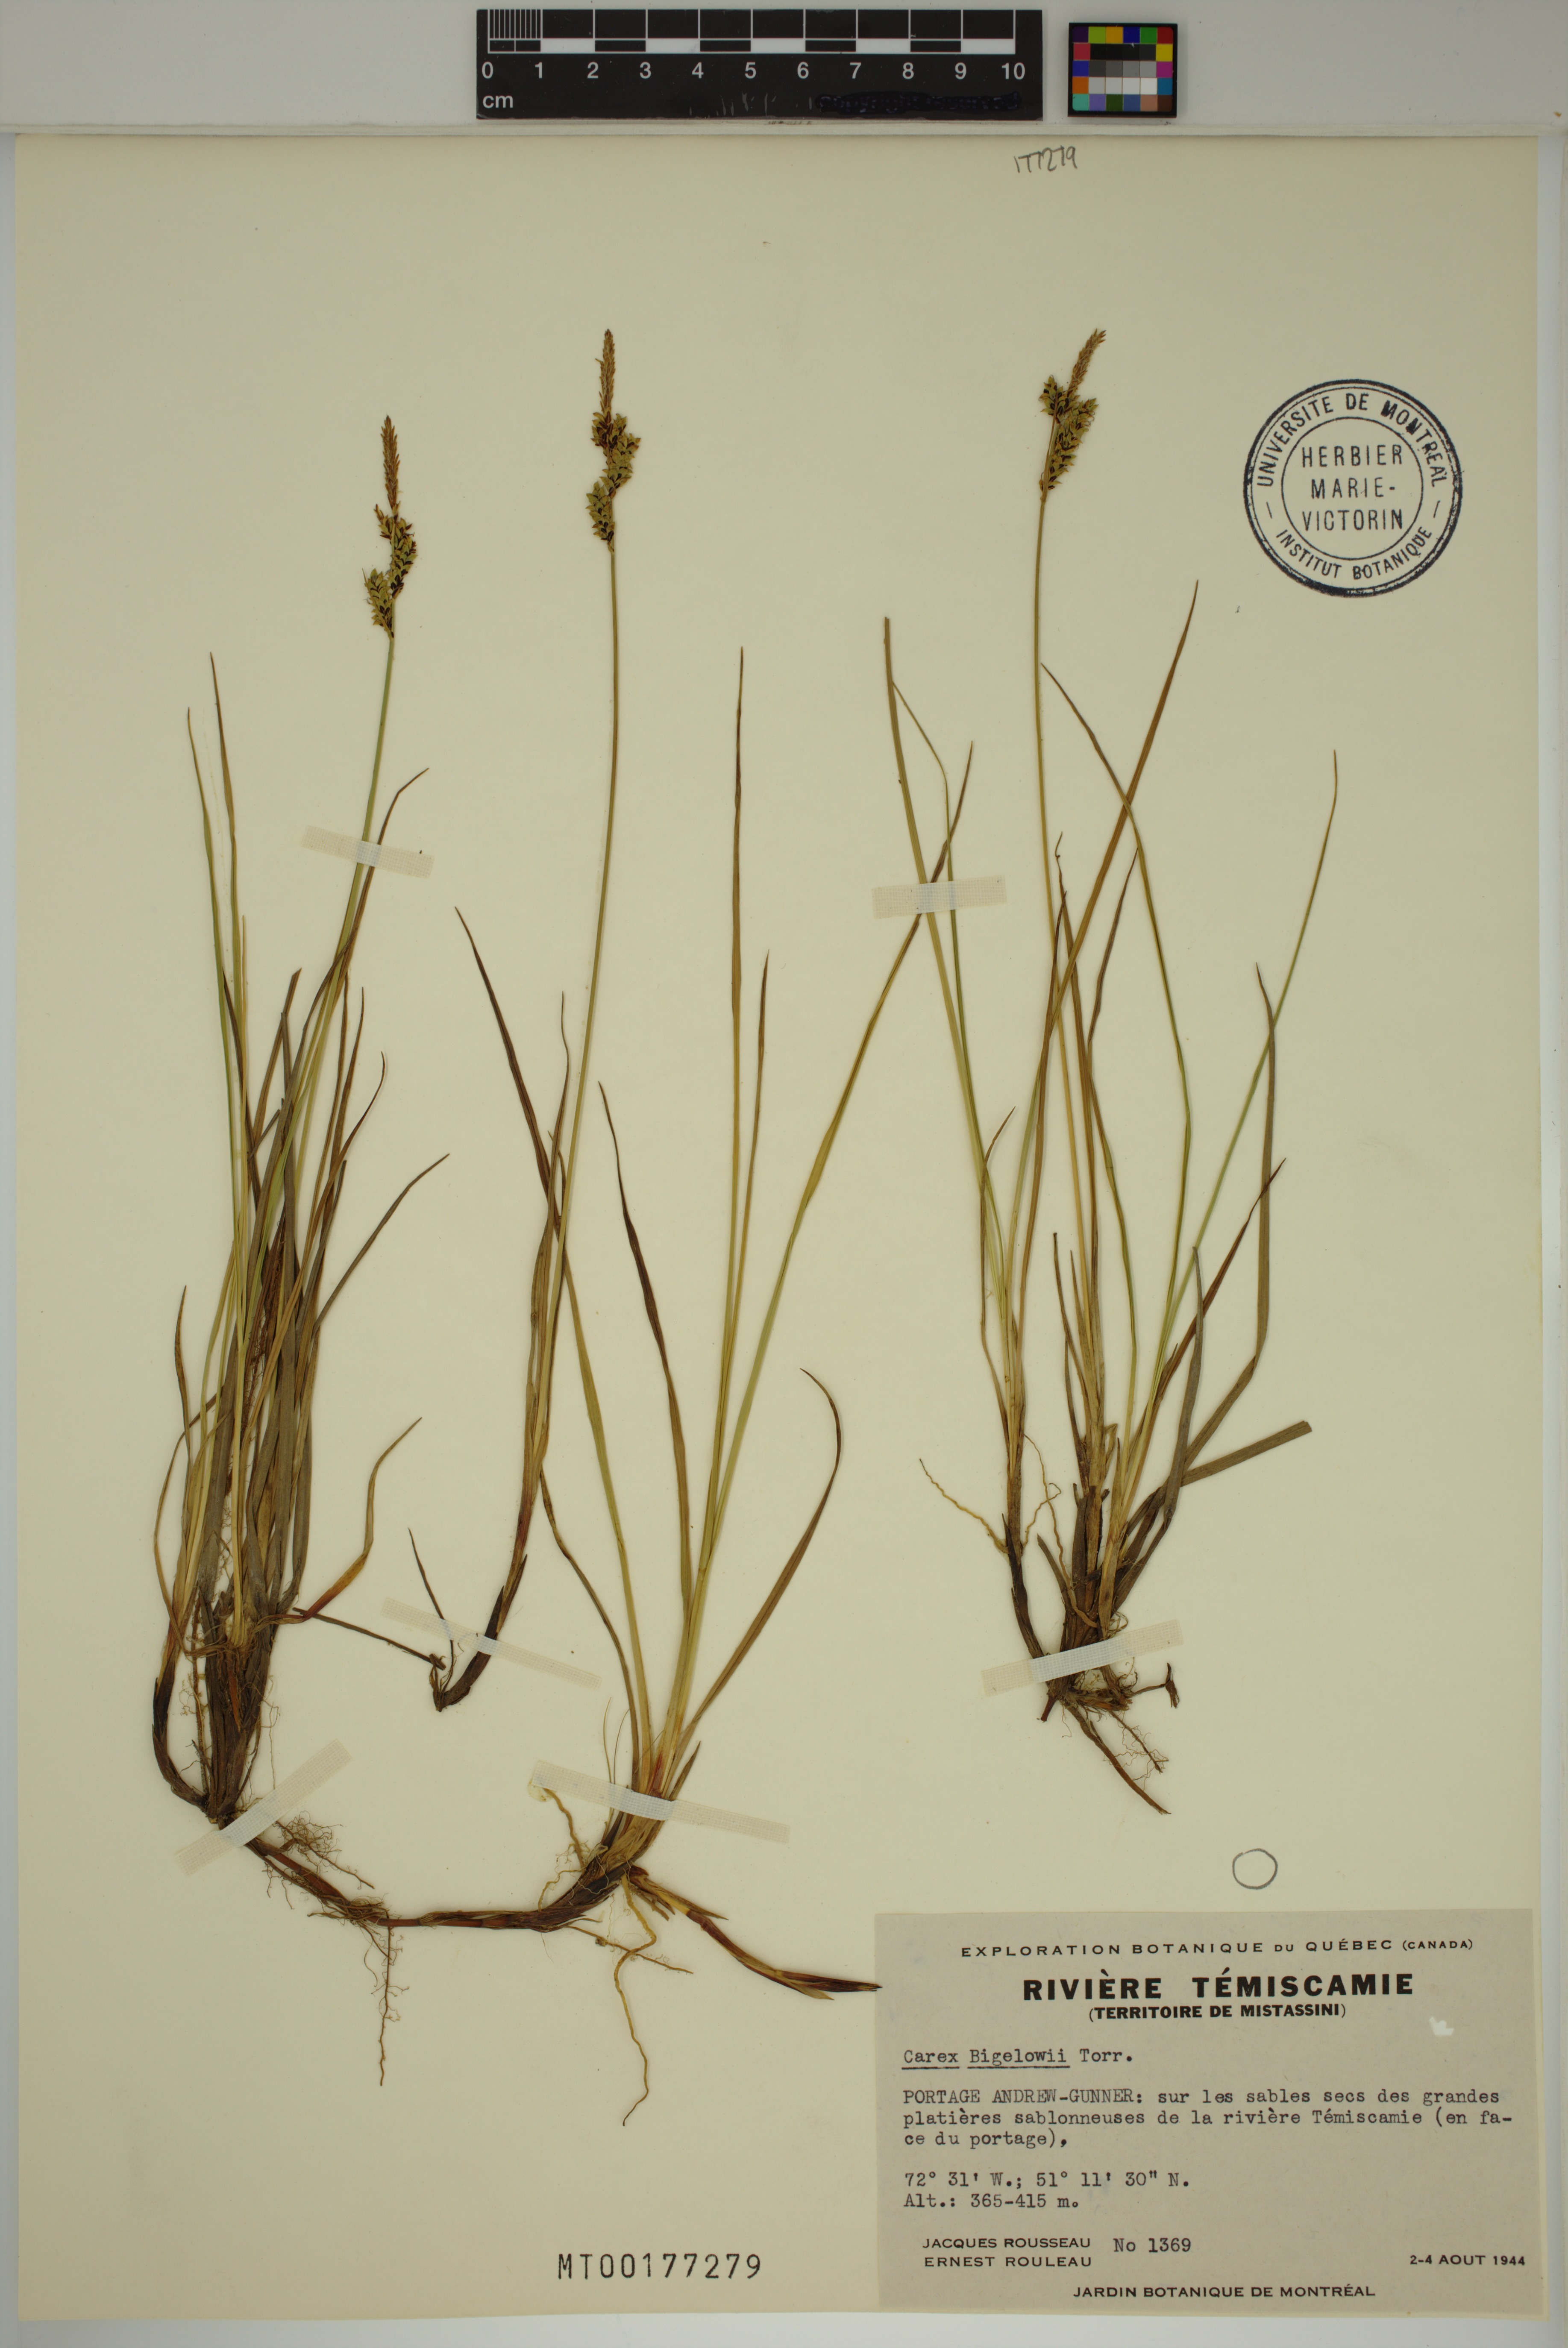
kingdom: Plantae
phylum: Tracheophyta
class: Liliopsida
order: Poales
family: Cyperaceae
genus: Carex
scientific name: Carex bigelowii
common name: Stiff sedge
